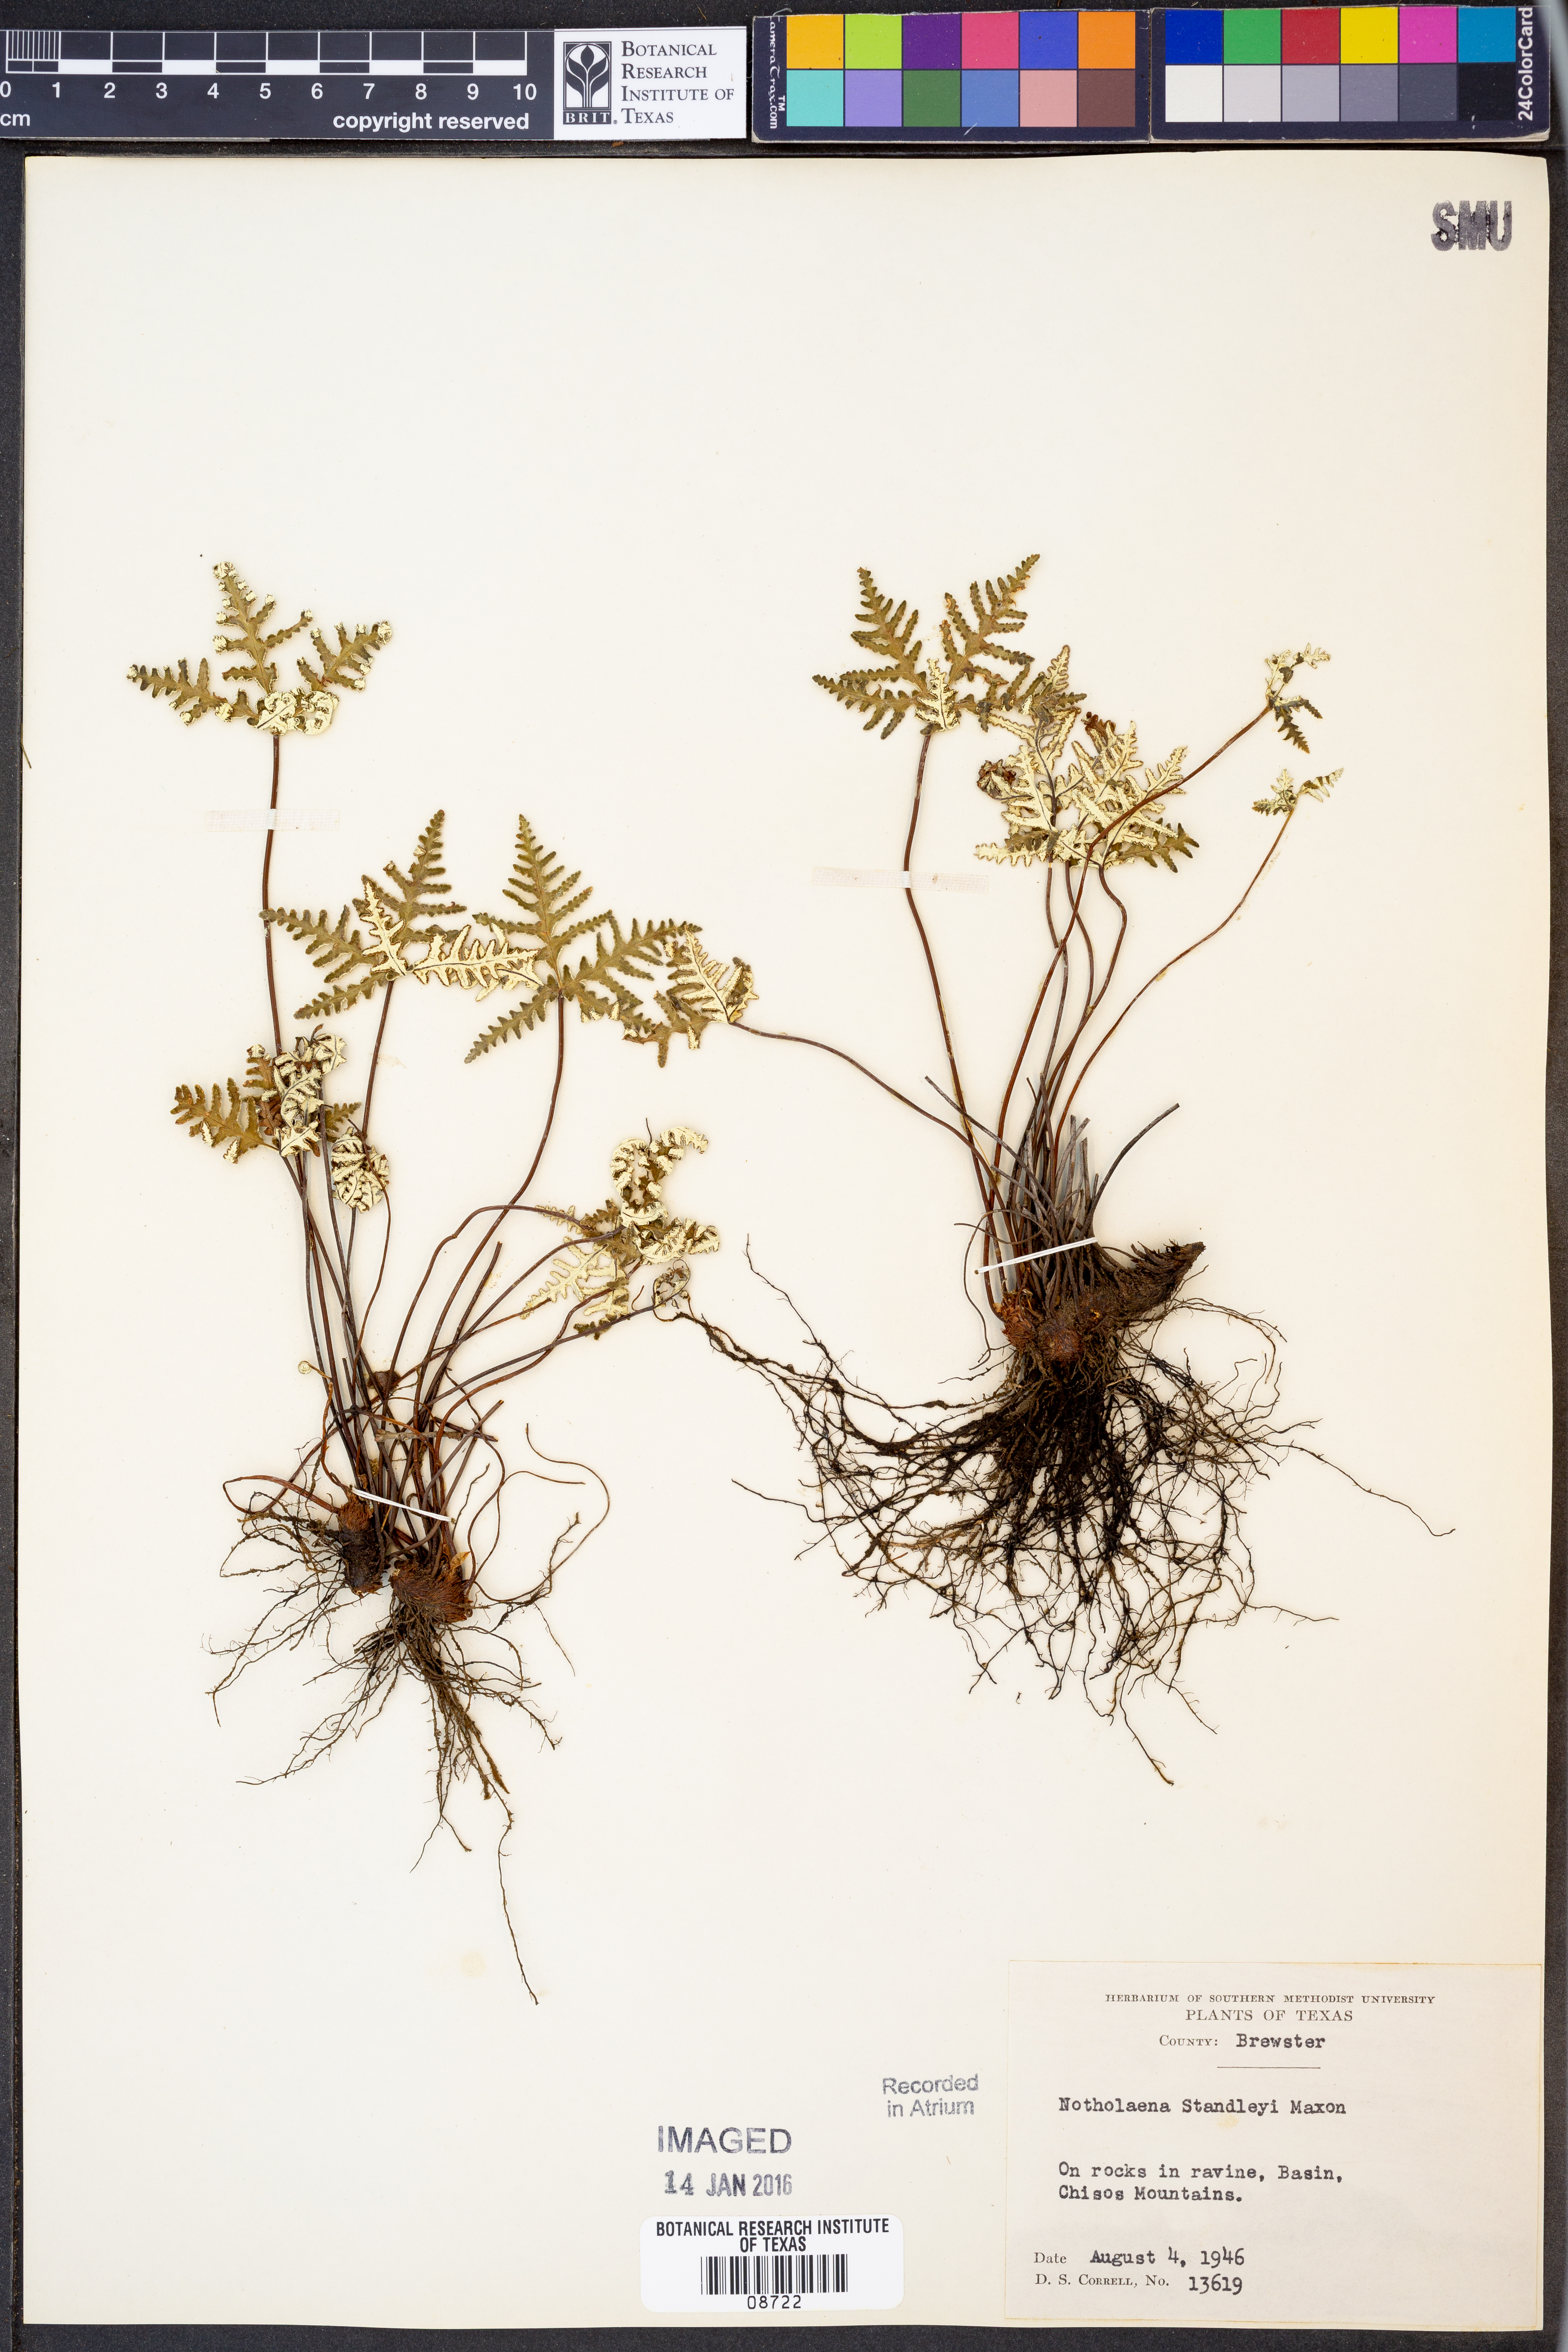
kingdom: Plantae
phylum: Tracheophyta
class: Polypodiopsida
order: Polypodiales
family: Pteridaceae
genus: Notholaena
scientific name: Notholaena standleyi
